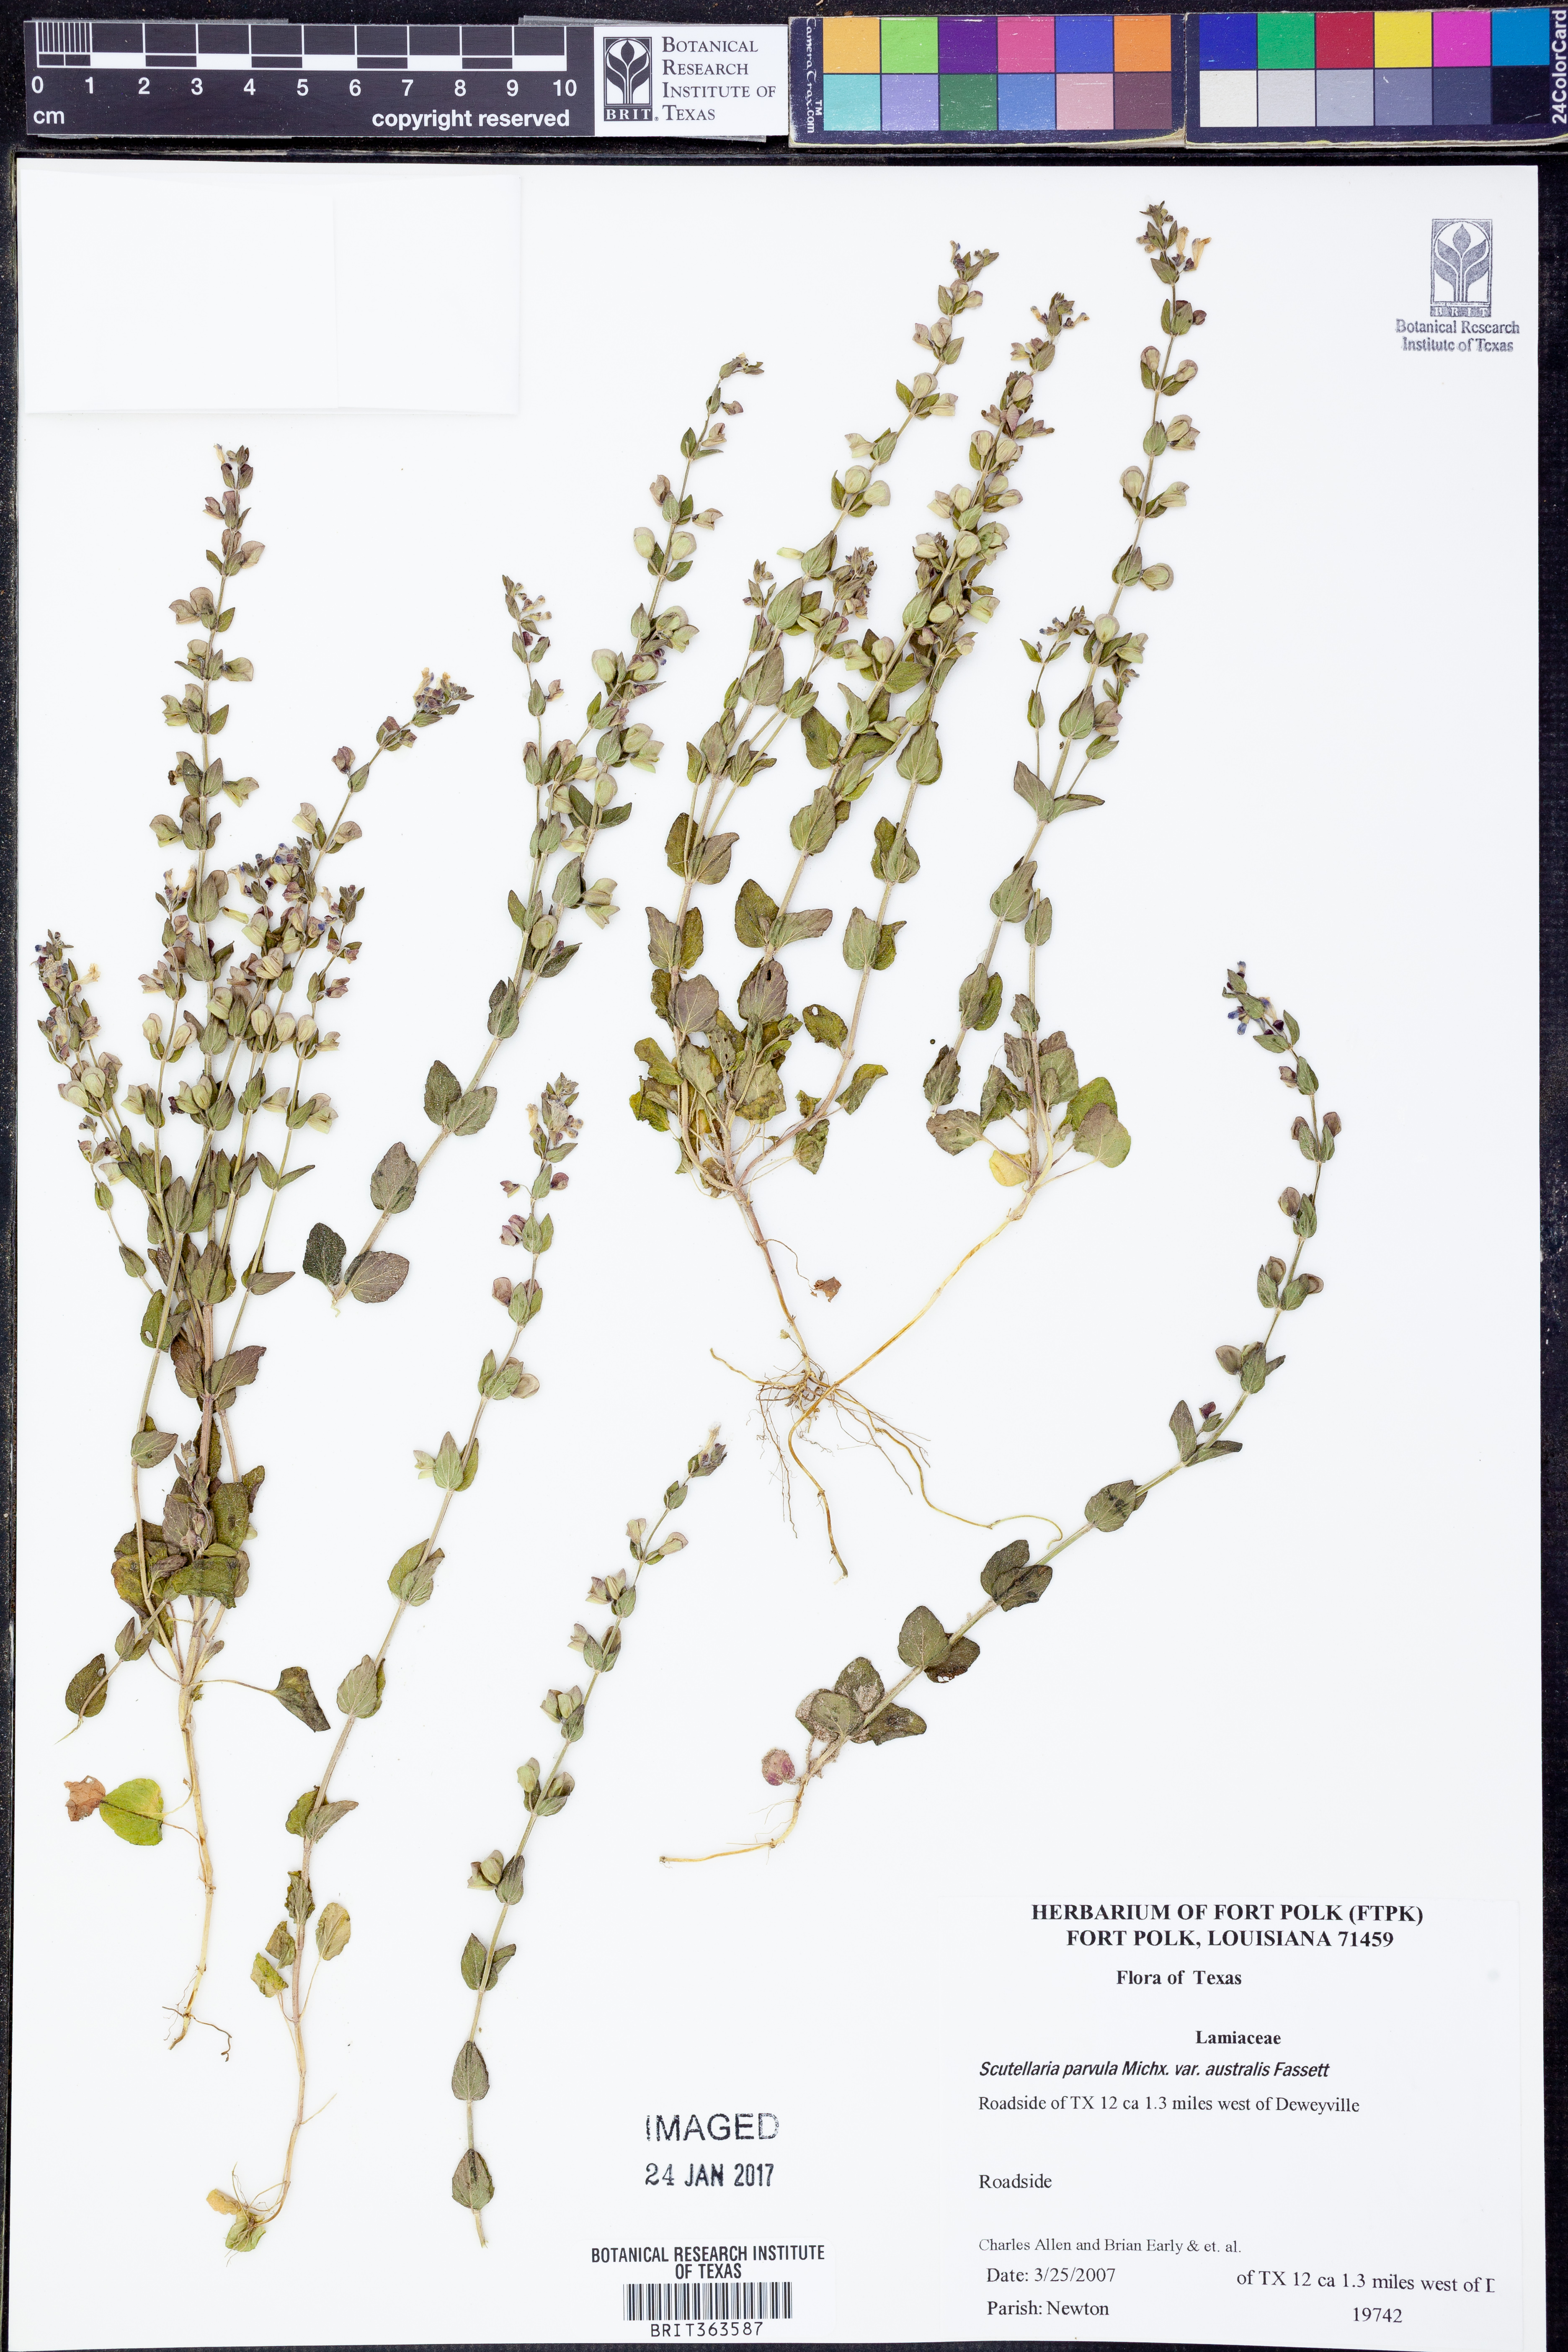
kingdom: Plantae
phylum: Tracheophyta
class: Magnoliopsida
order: Lamiales
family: Lamiaceae
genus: Scutellaria
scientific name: Scutellaria parvula
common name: Little scullcap
